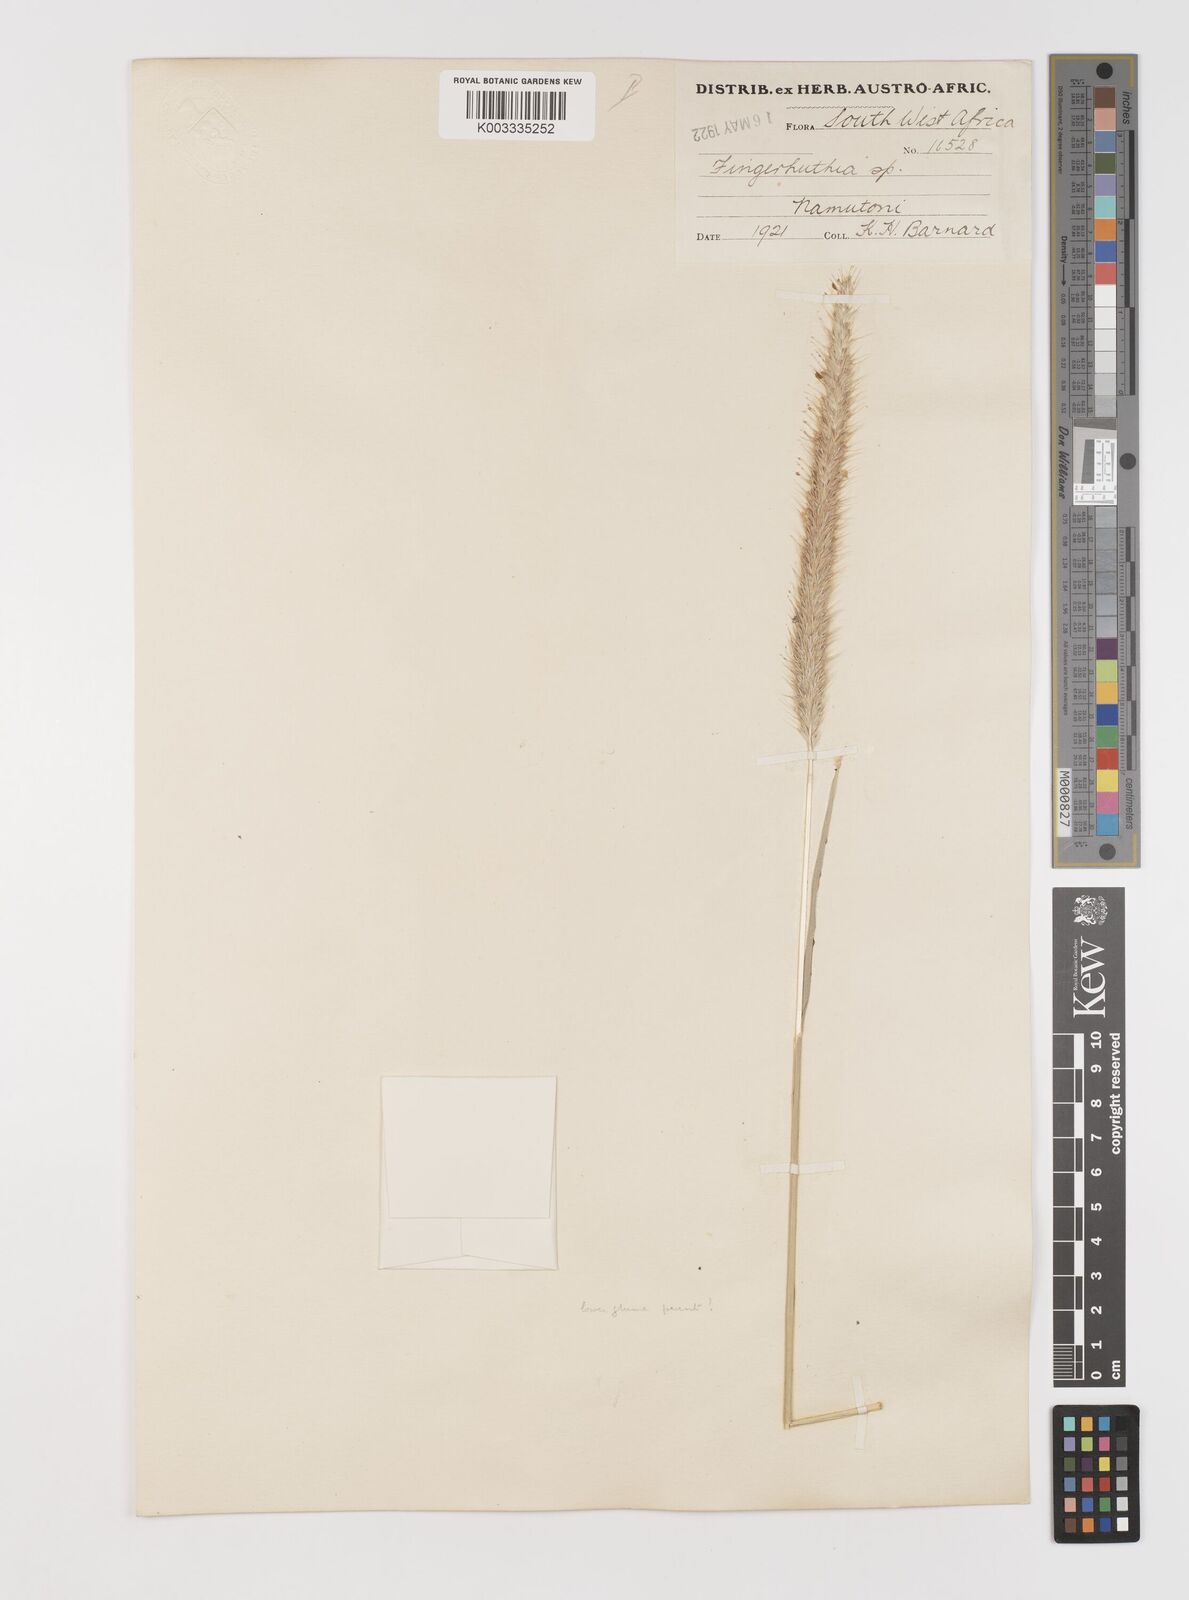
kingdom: Plantae
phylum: Tracheophyta
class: Liliopsida
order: Poales
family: Poaceae
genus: Monelytrum
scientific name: Monelytrum luederitzianum
